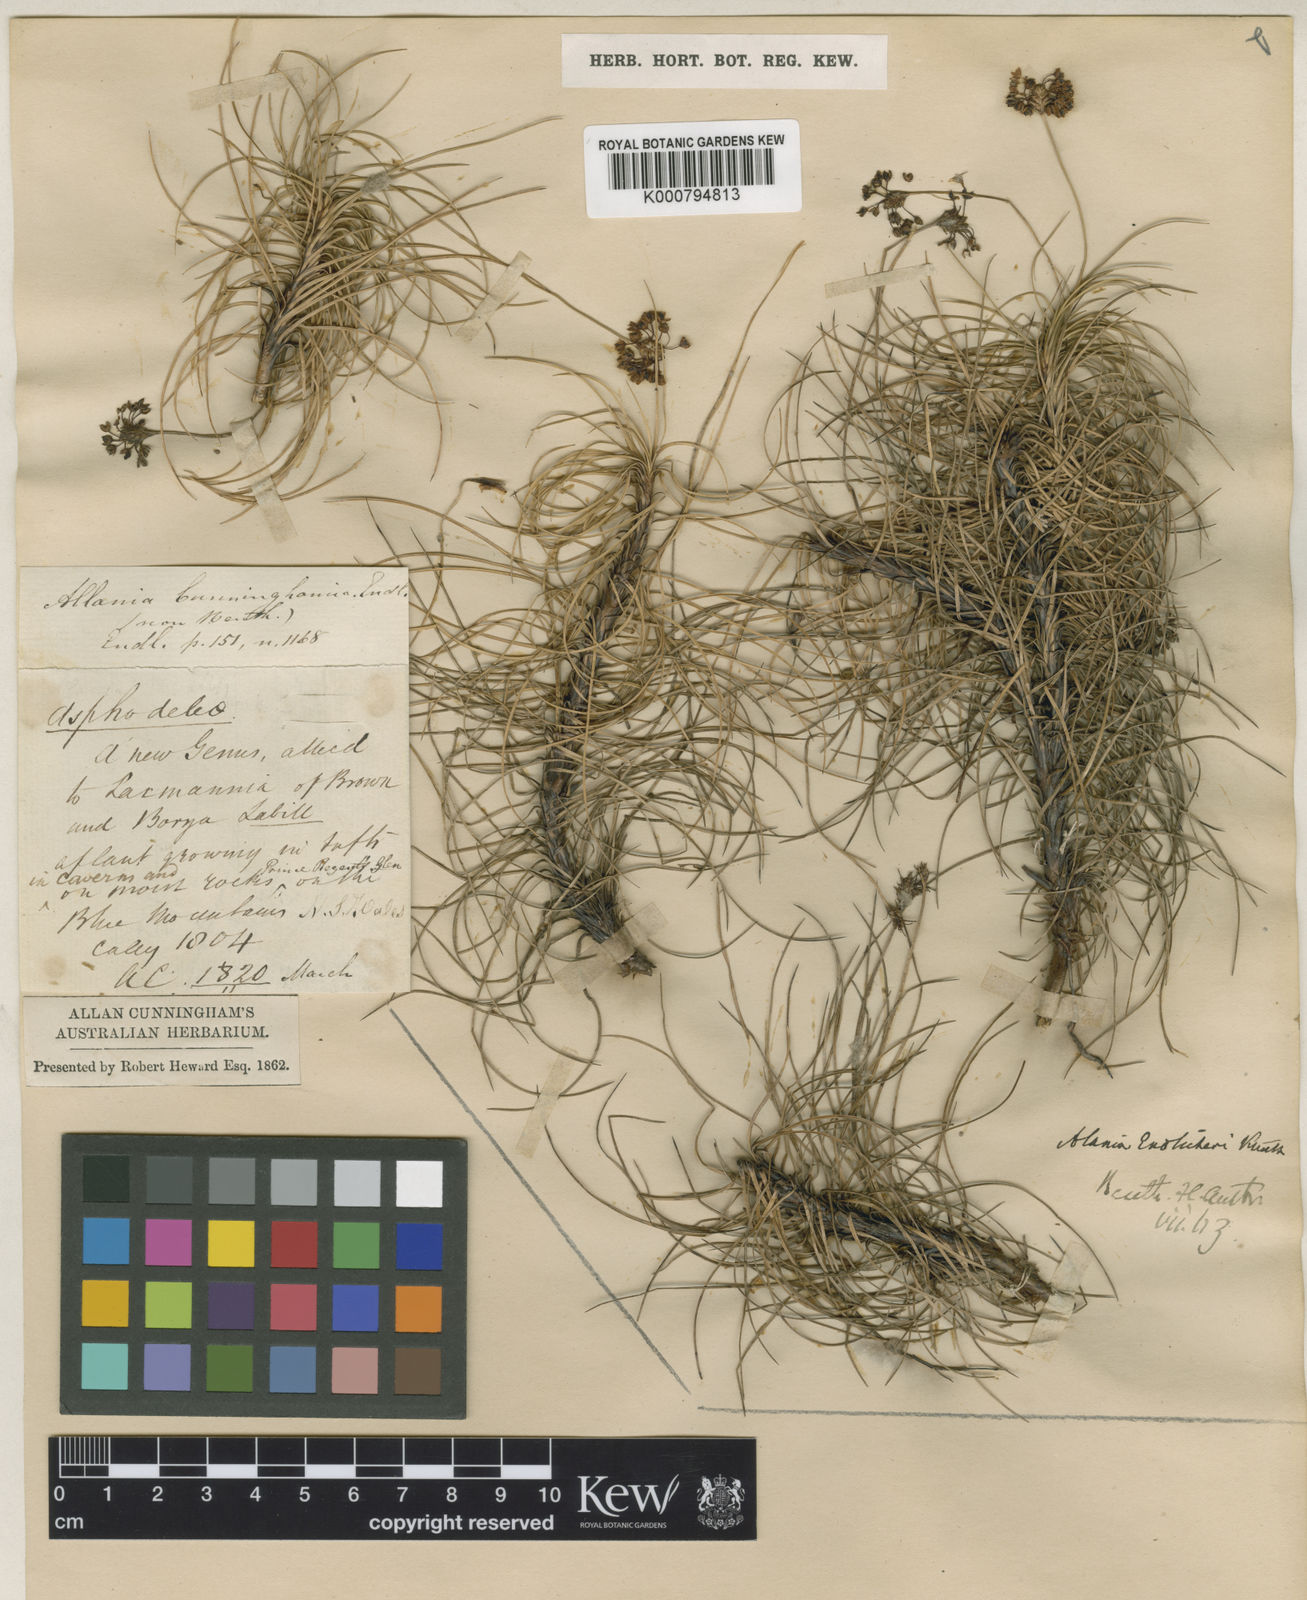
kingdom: Plantae
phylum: Tracheophyta
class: Liliopsida
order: Asparagales
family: Boryaceae
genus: Alania
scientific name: Alania cunninghamii
